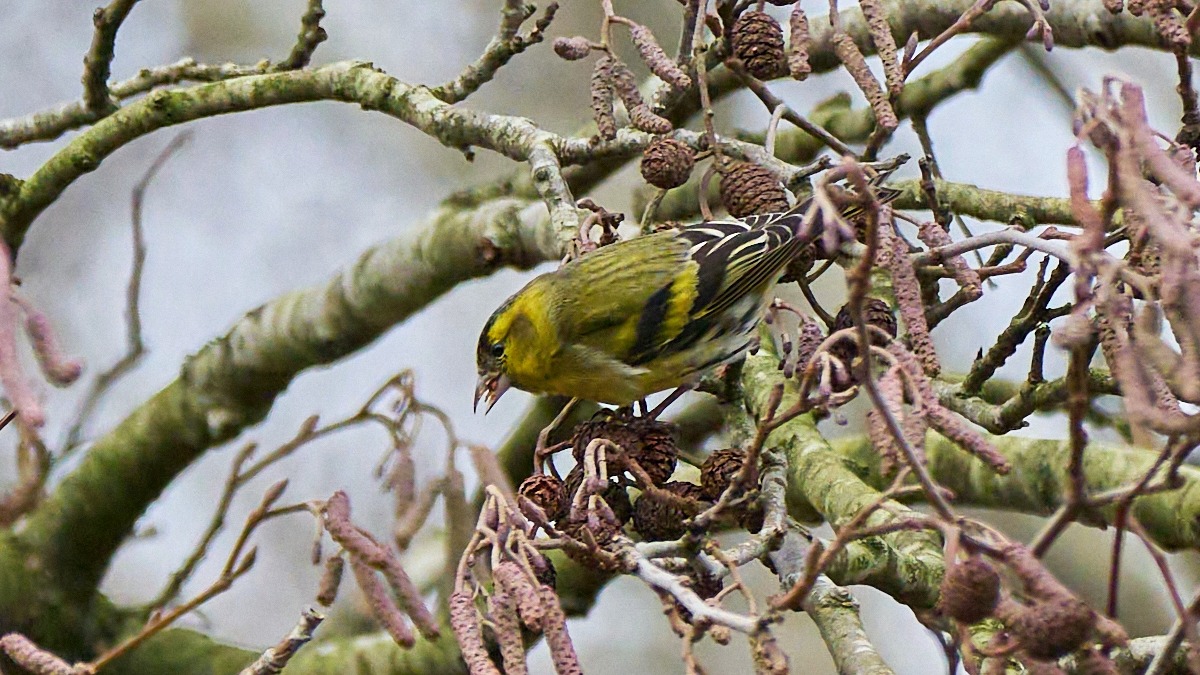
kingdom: Animalia
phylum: Chordata
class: Aves
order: Passeriformes
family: Fringillidae
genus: Spinus
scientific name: Spinus spinus
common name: Grønsisken
